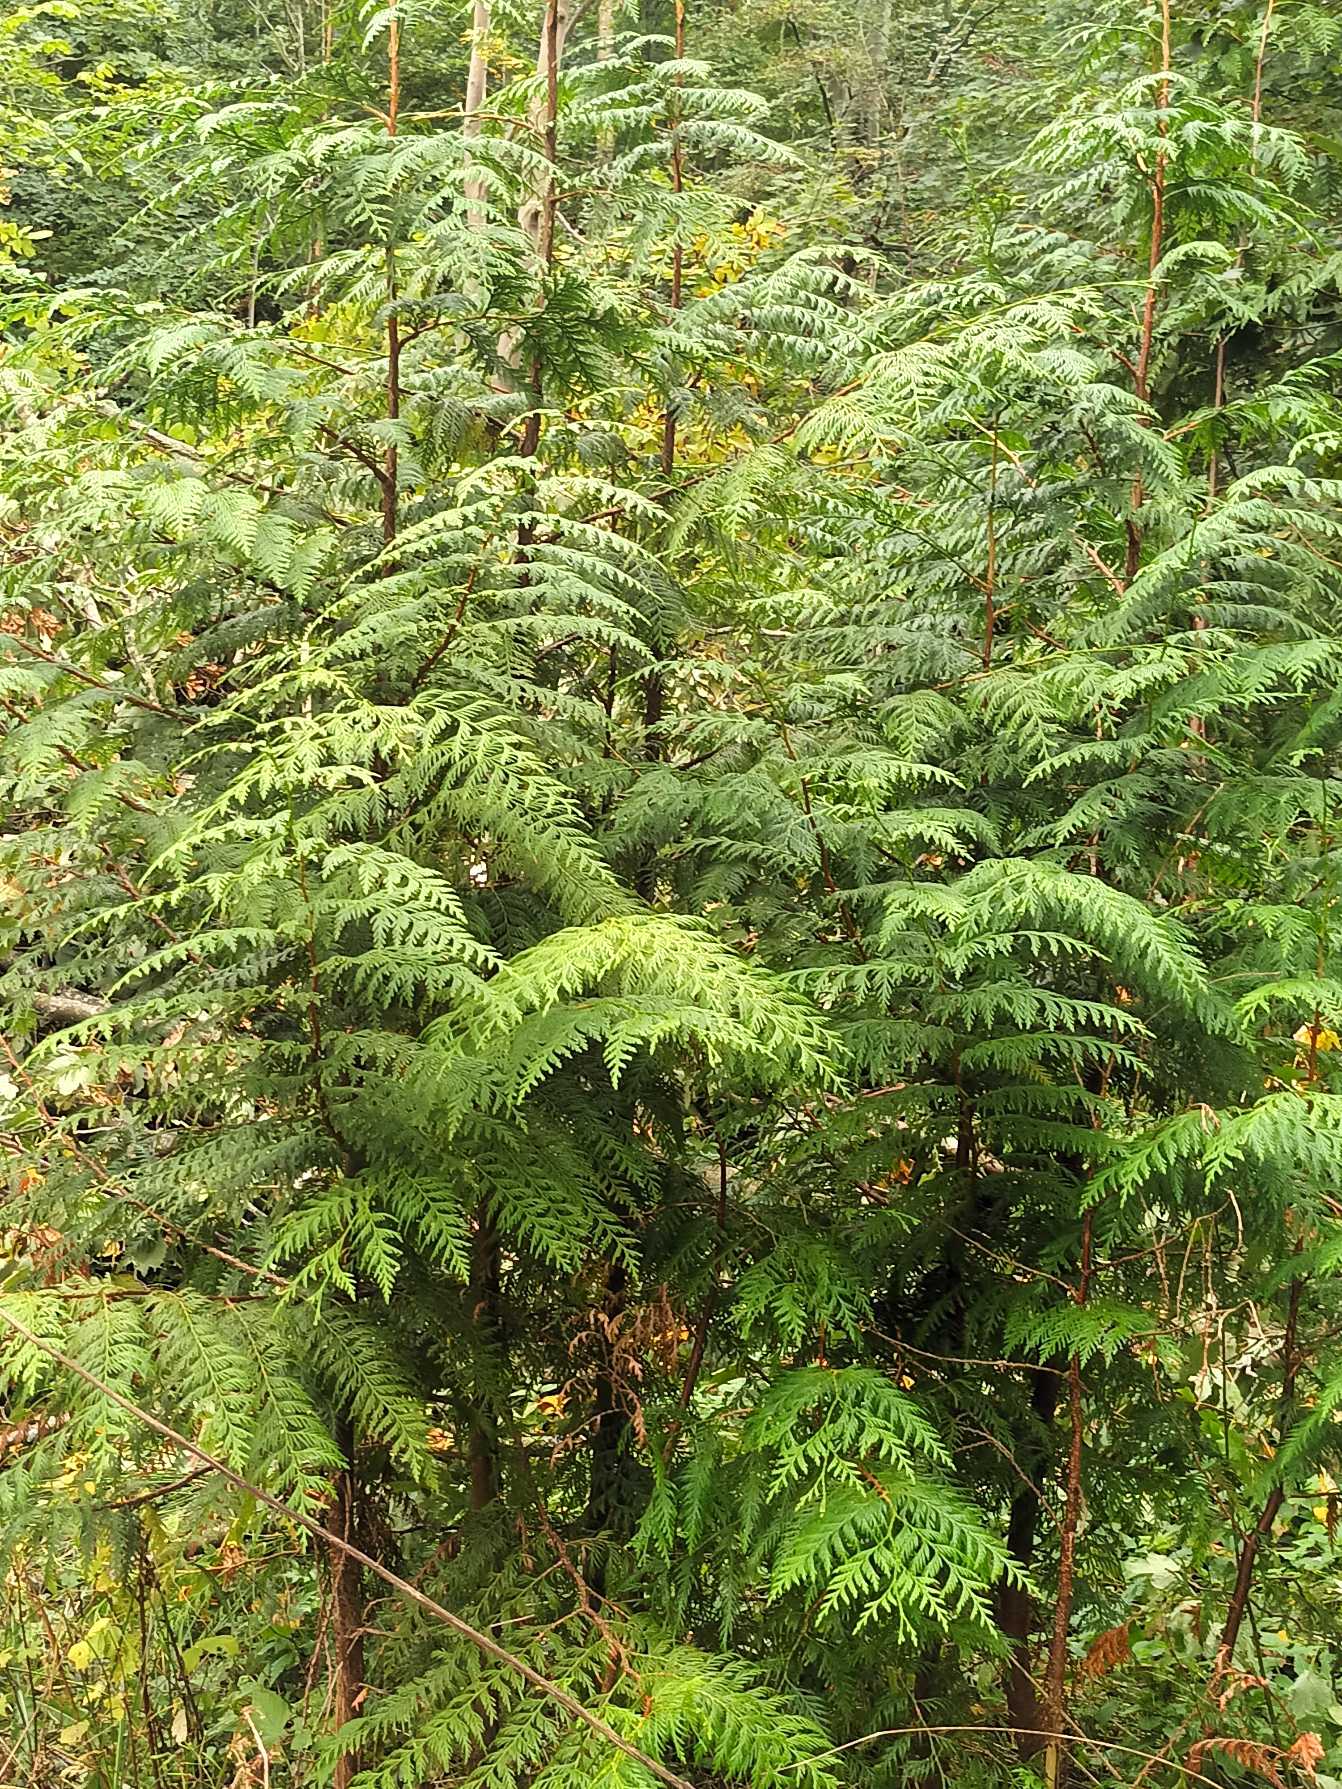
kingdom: Plantae
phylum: Tracheophyta
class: Pinopsida
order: Pinales
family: Cupressaceae
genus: Thuja
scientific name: Thuja plicata
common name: Kæmpe-thuja
